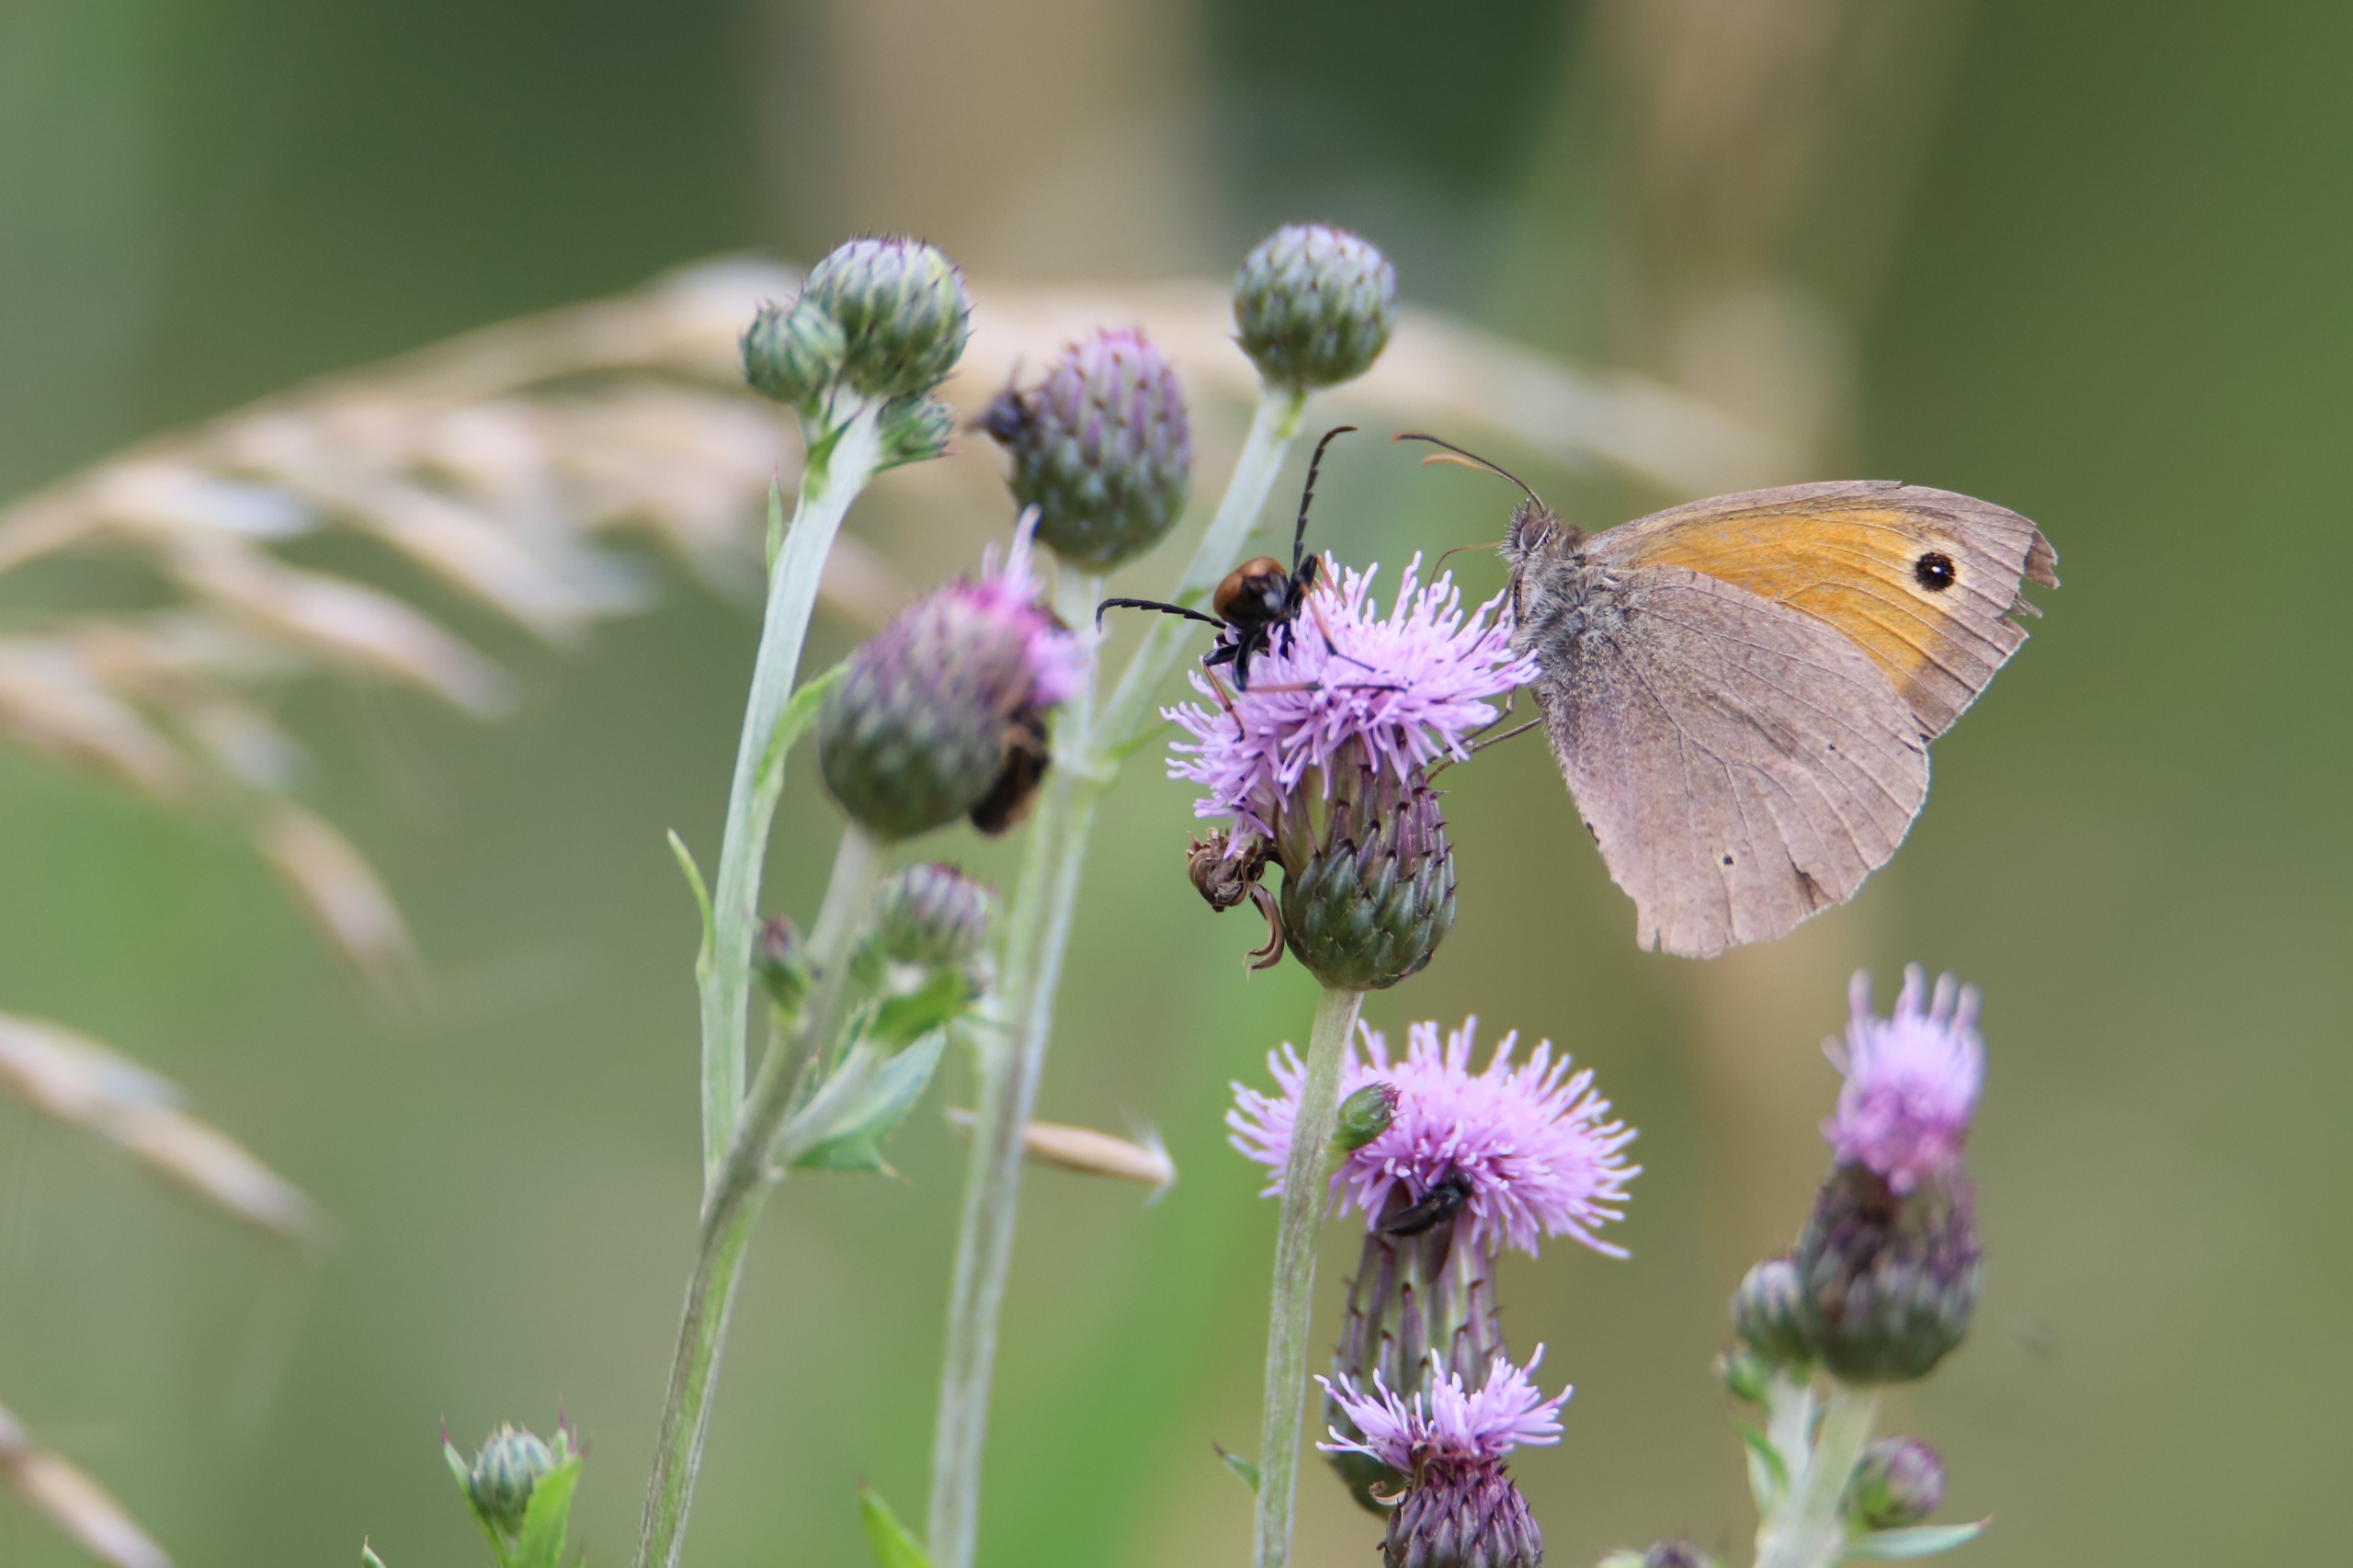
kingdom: Animalia
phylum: Arthropoda
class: Insecta
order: Lepidoptera
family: Nymphalidae
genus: Maniola
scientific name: Maniola jurtina
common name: Græsrandøje
